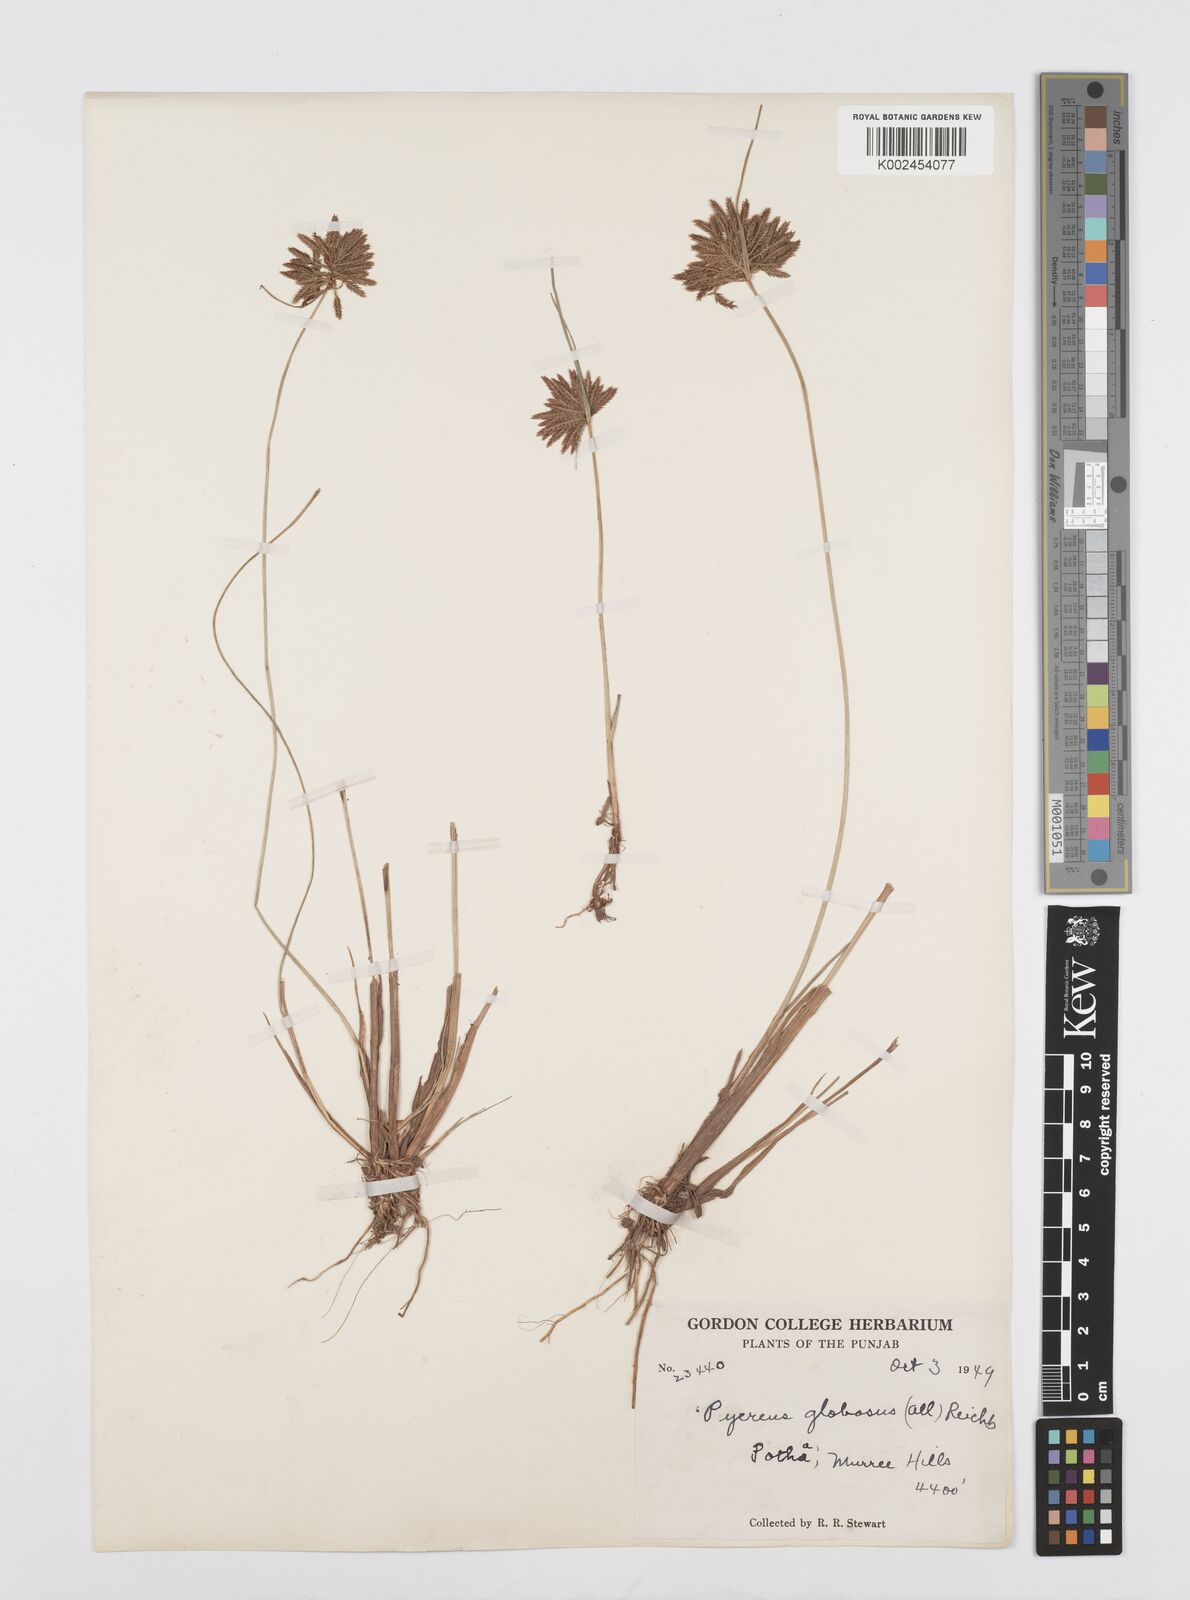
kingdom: Plantae
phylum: Tracheophyta
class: Liliopsida
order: Poales
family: Cyperaceae
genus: Cyperus
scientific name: Cyperus flavidus
